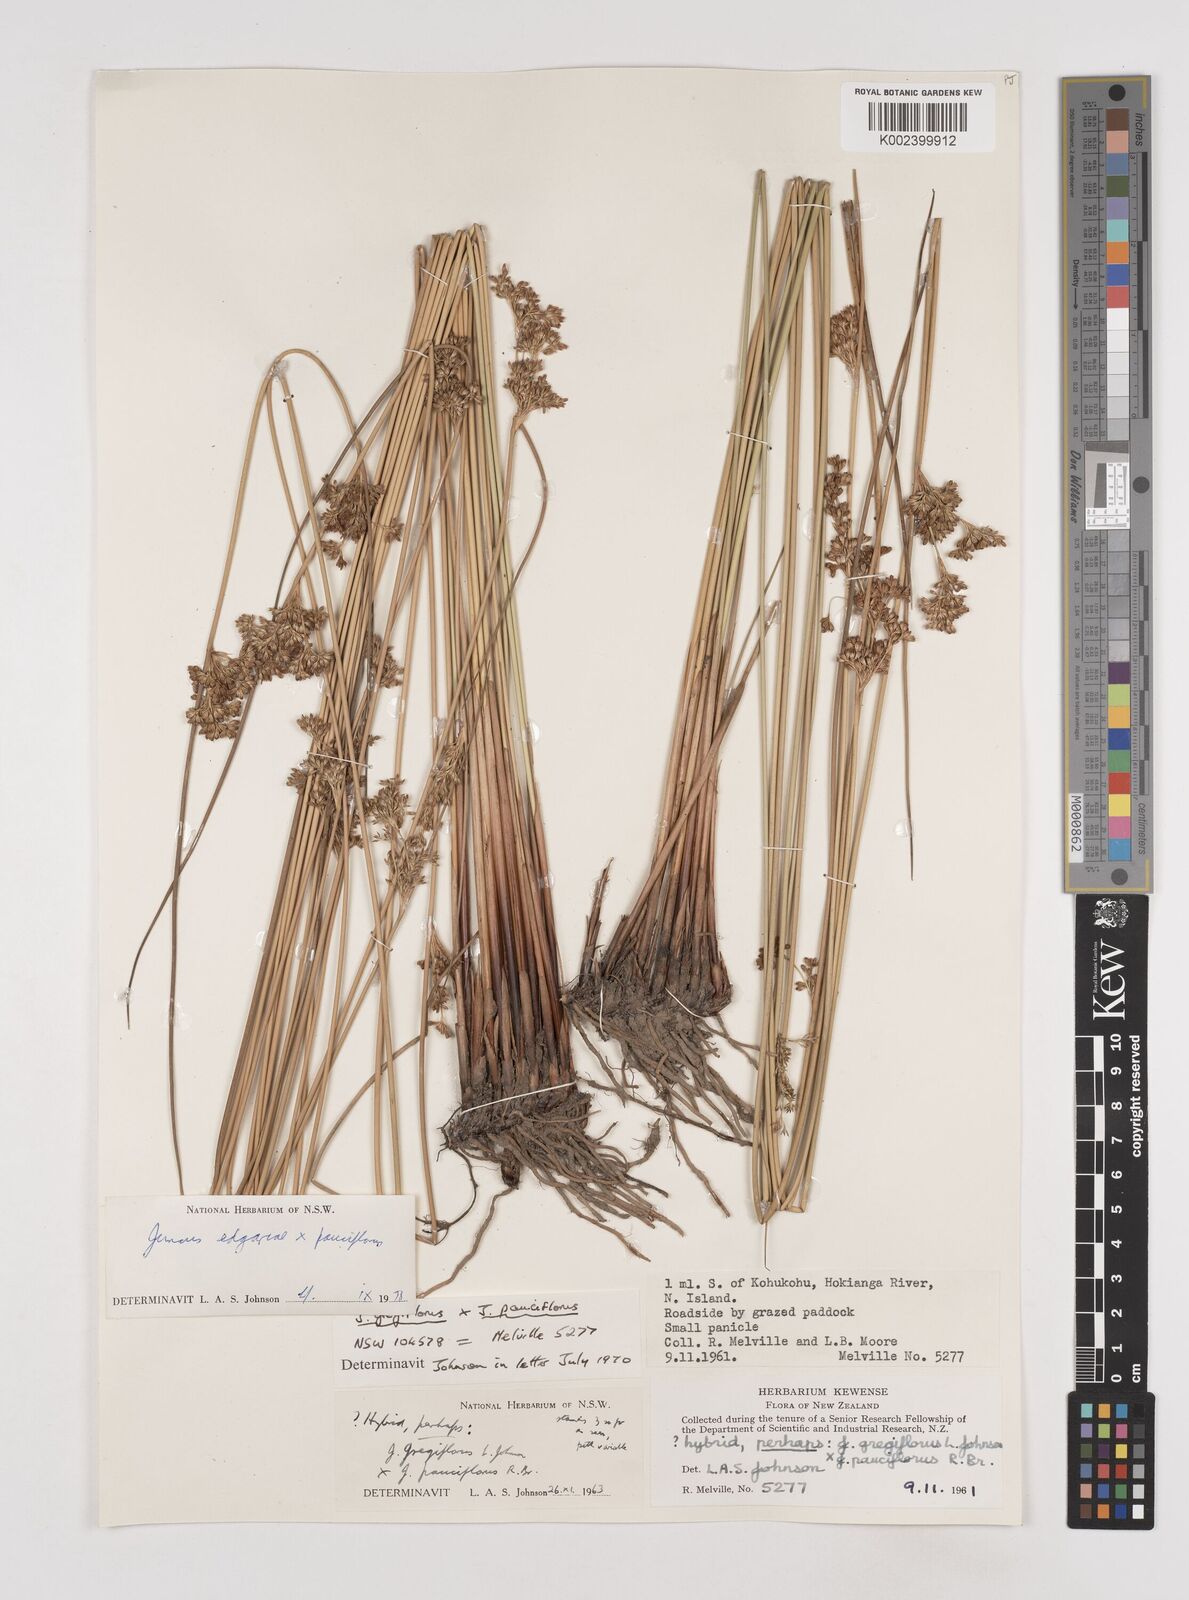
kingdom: Plantae
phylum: Tracheophyta
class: Liliopsida
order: Poales
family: Juncaceae
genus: Juncus
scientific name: Juncus hybridus
